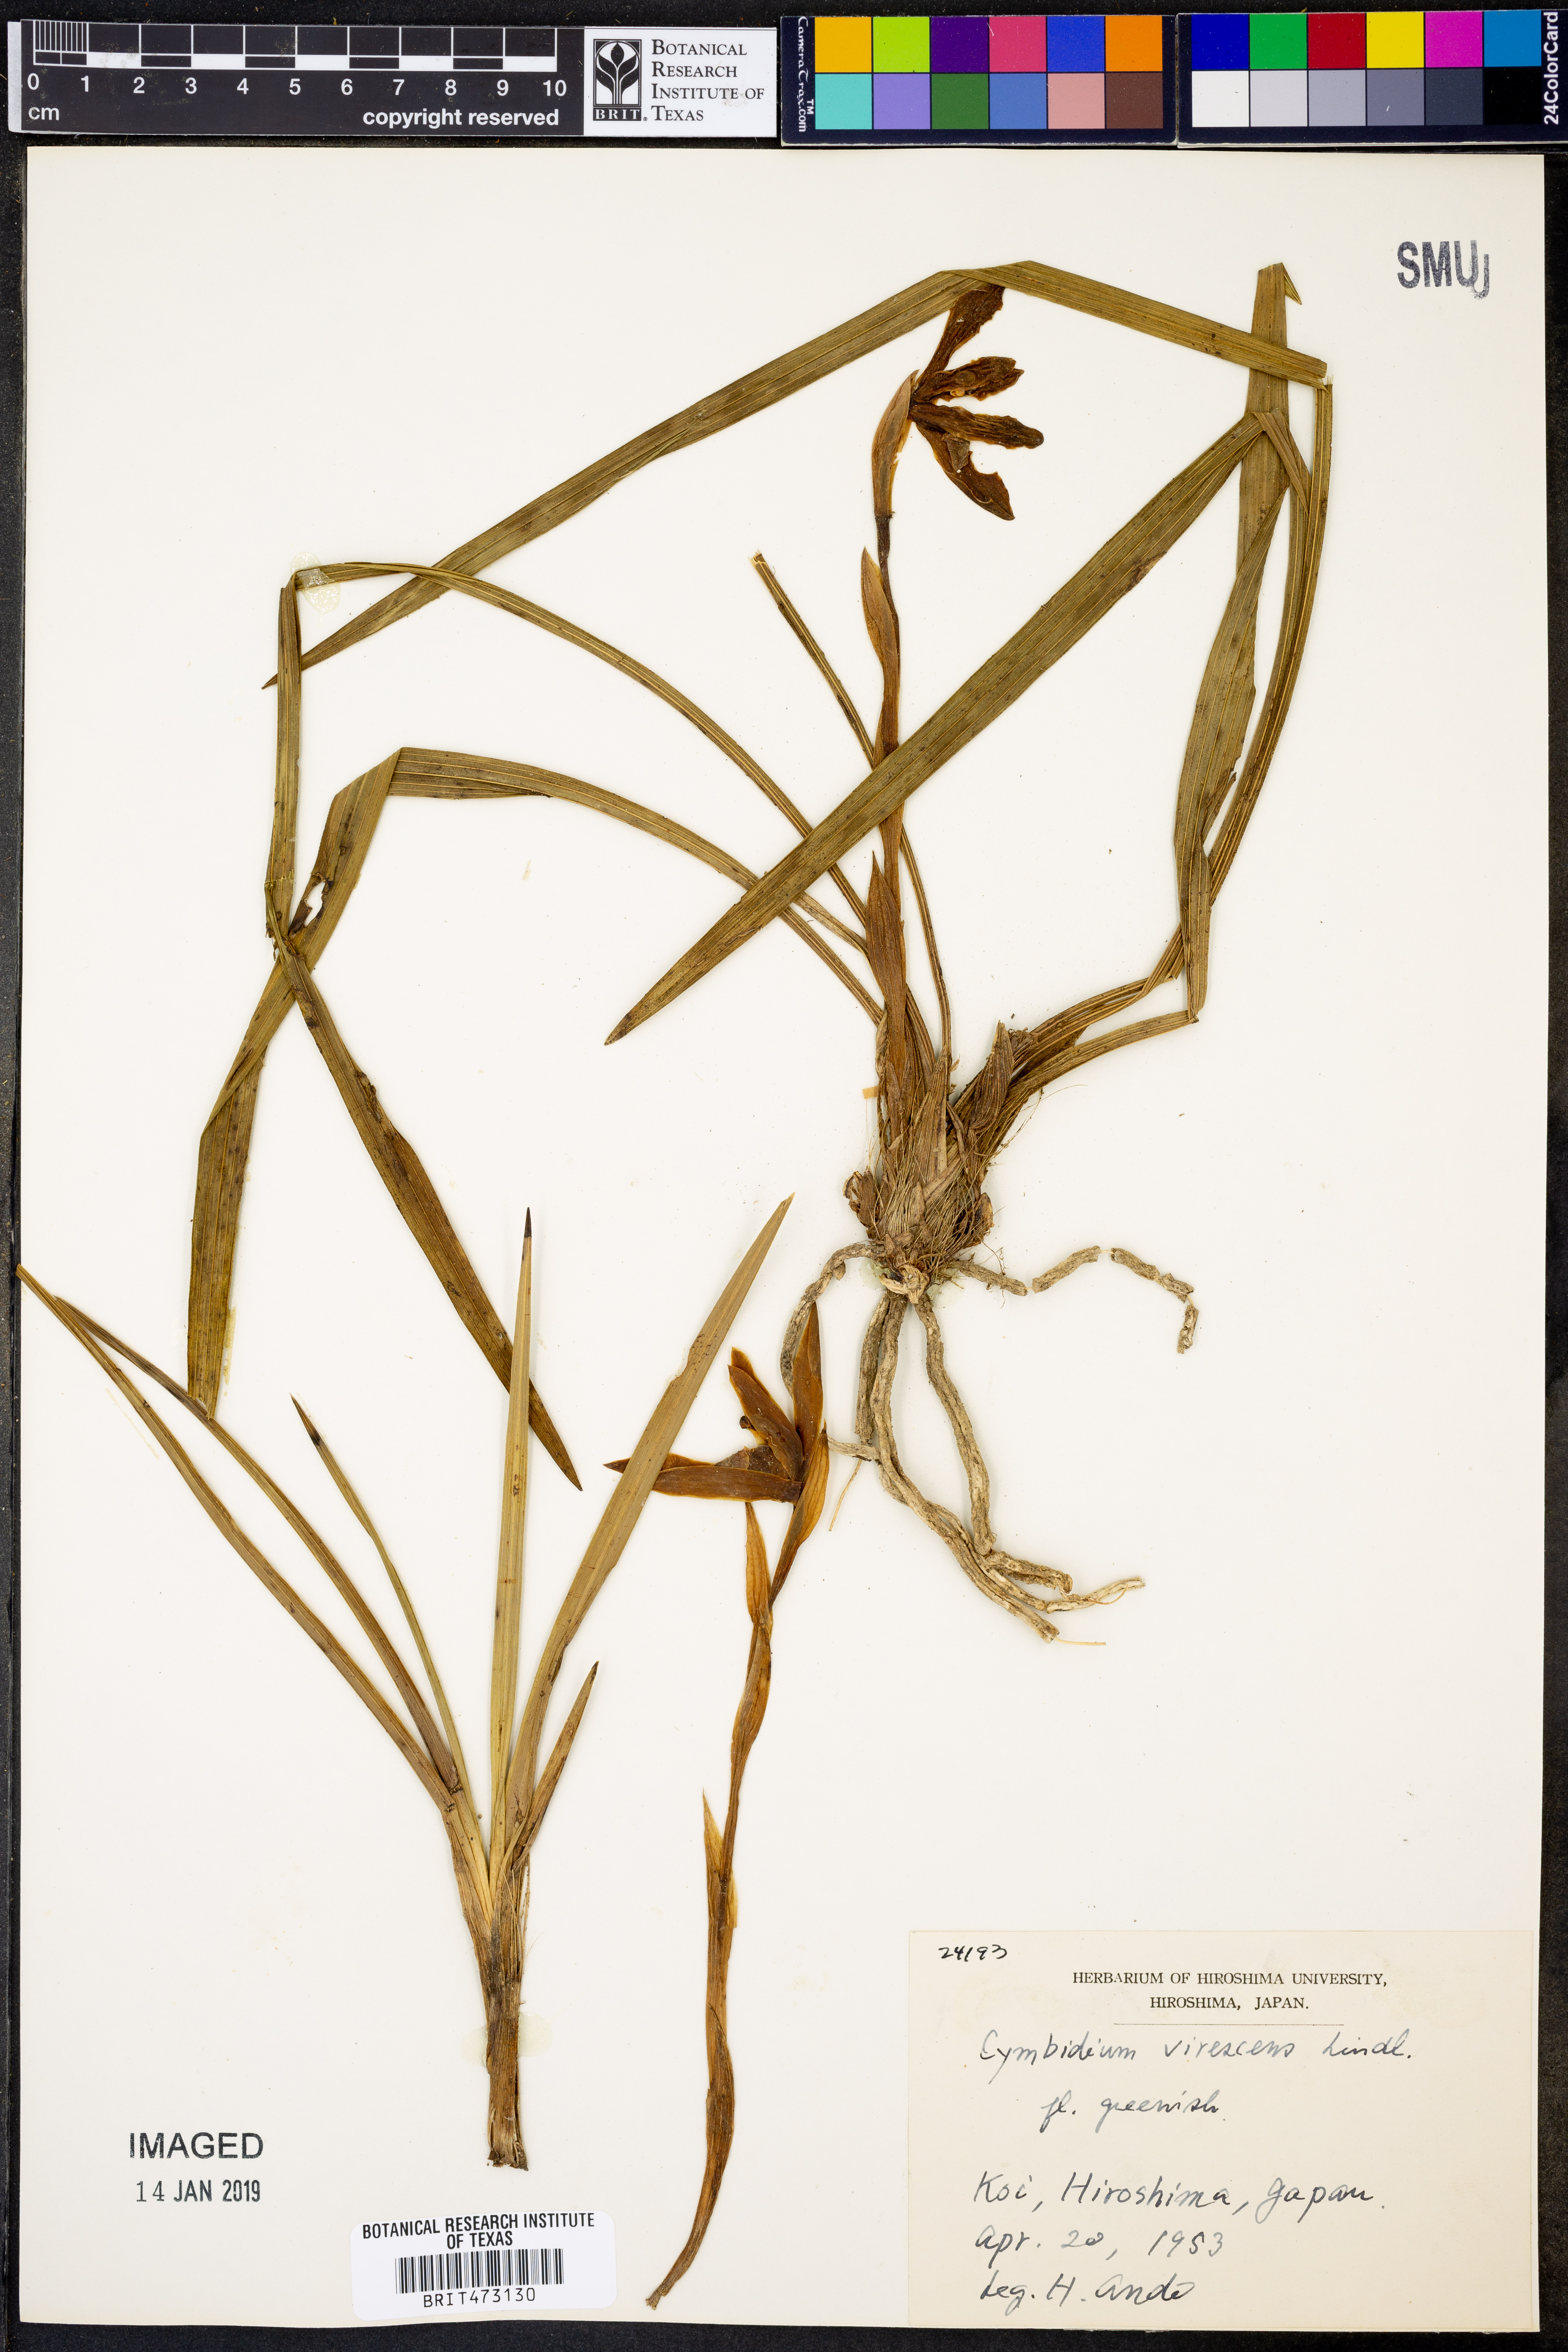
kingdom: Plantae
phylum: Tracheophyta
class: Liliopsida
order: Asparagales
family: Orchidaceae
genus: Chloraea
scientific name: Chloraea piquichen
